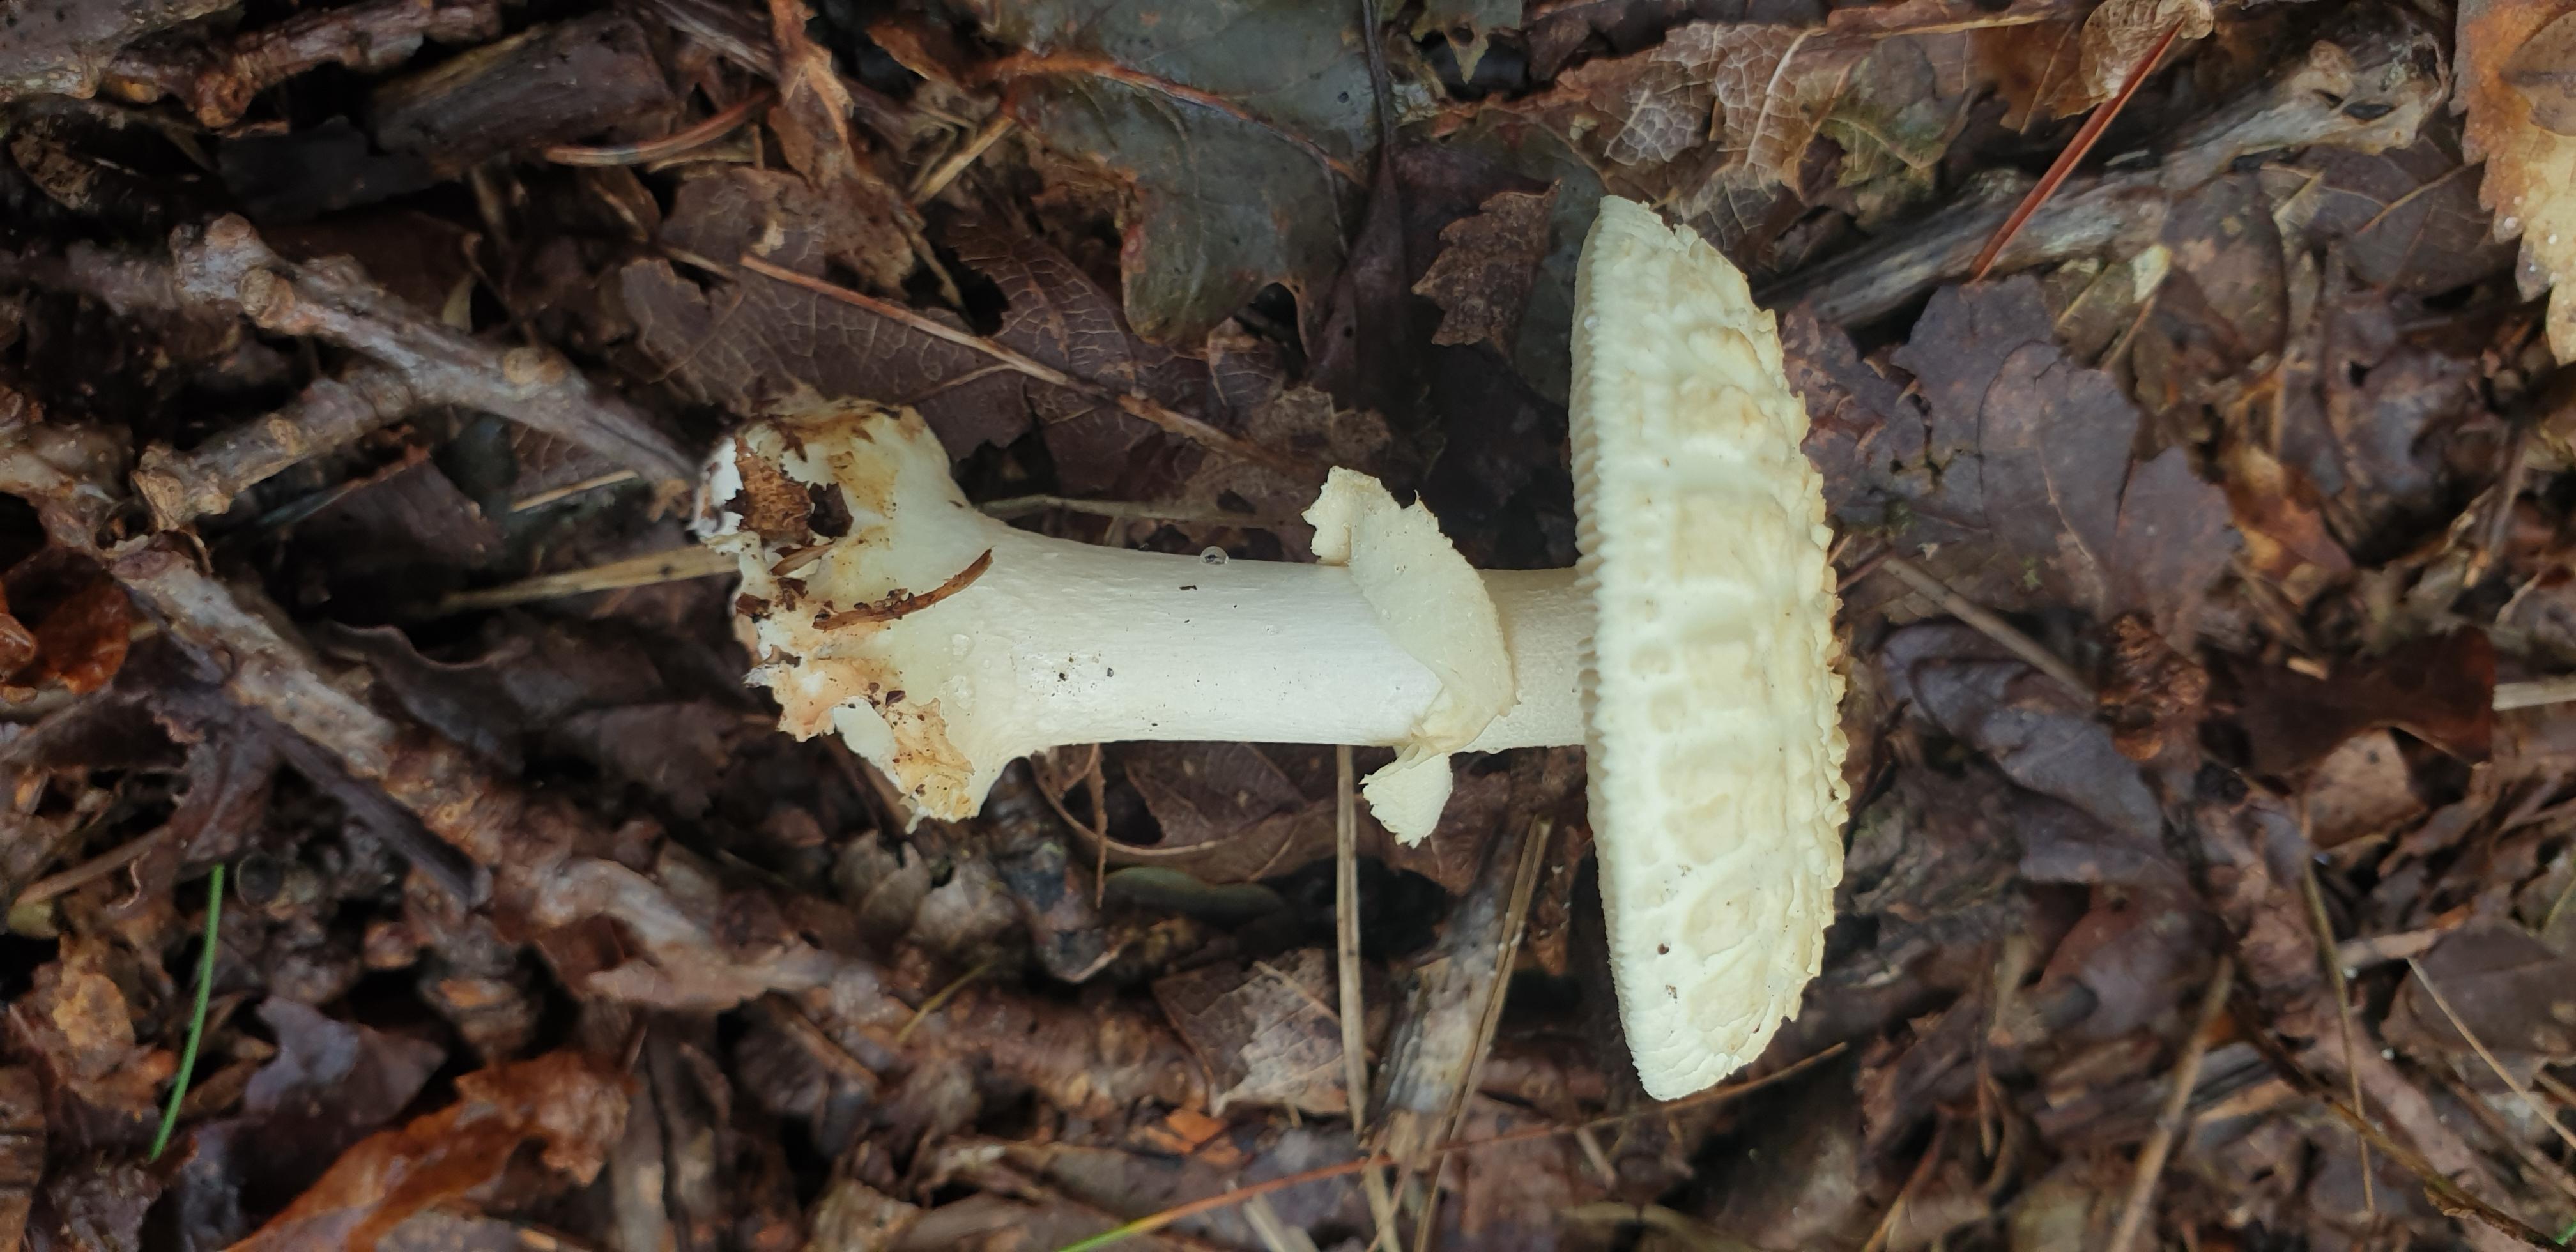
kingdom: Fungi
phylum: Basidiomycota
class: Agaricomycetes
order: Agaricales
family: Amanitaceae
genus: Amanita
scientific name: Amanita citrina
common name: kugleknoldet fluesvamp
